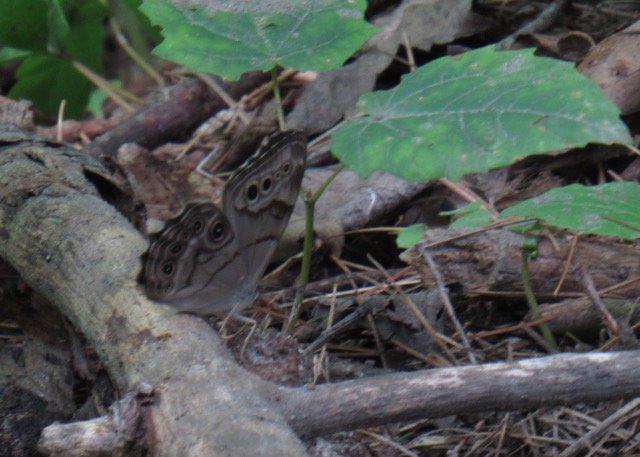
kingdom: Animalia
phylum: Arthropoda
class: Insecta
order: Lepidoptera
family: Nymphalidae
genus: Lethe
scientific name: Lethe anthedon
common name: Northern Pearly-Eye
